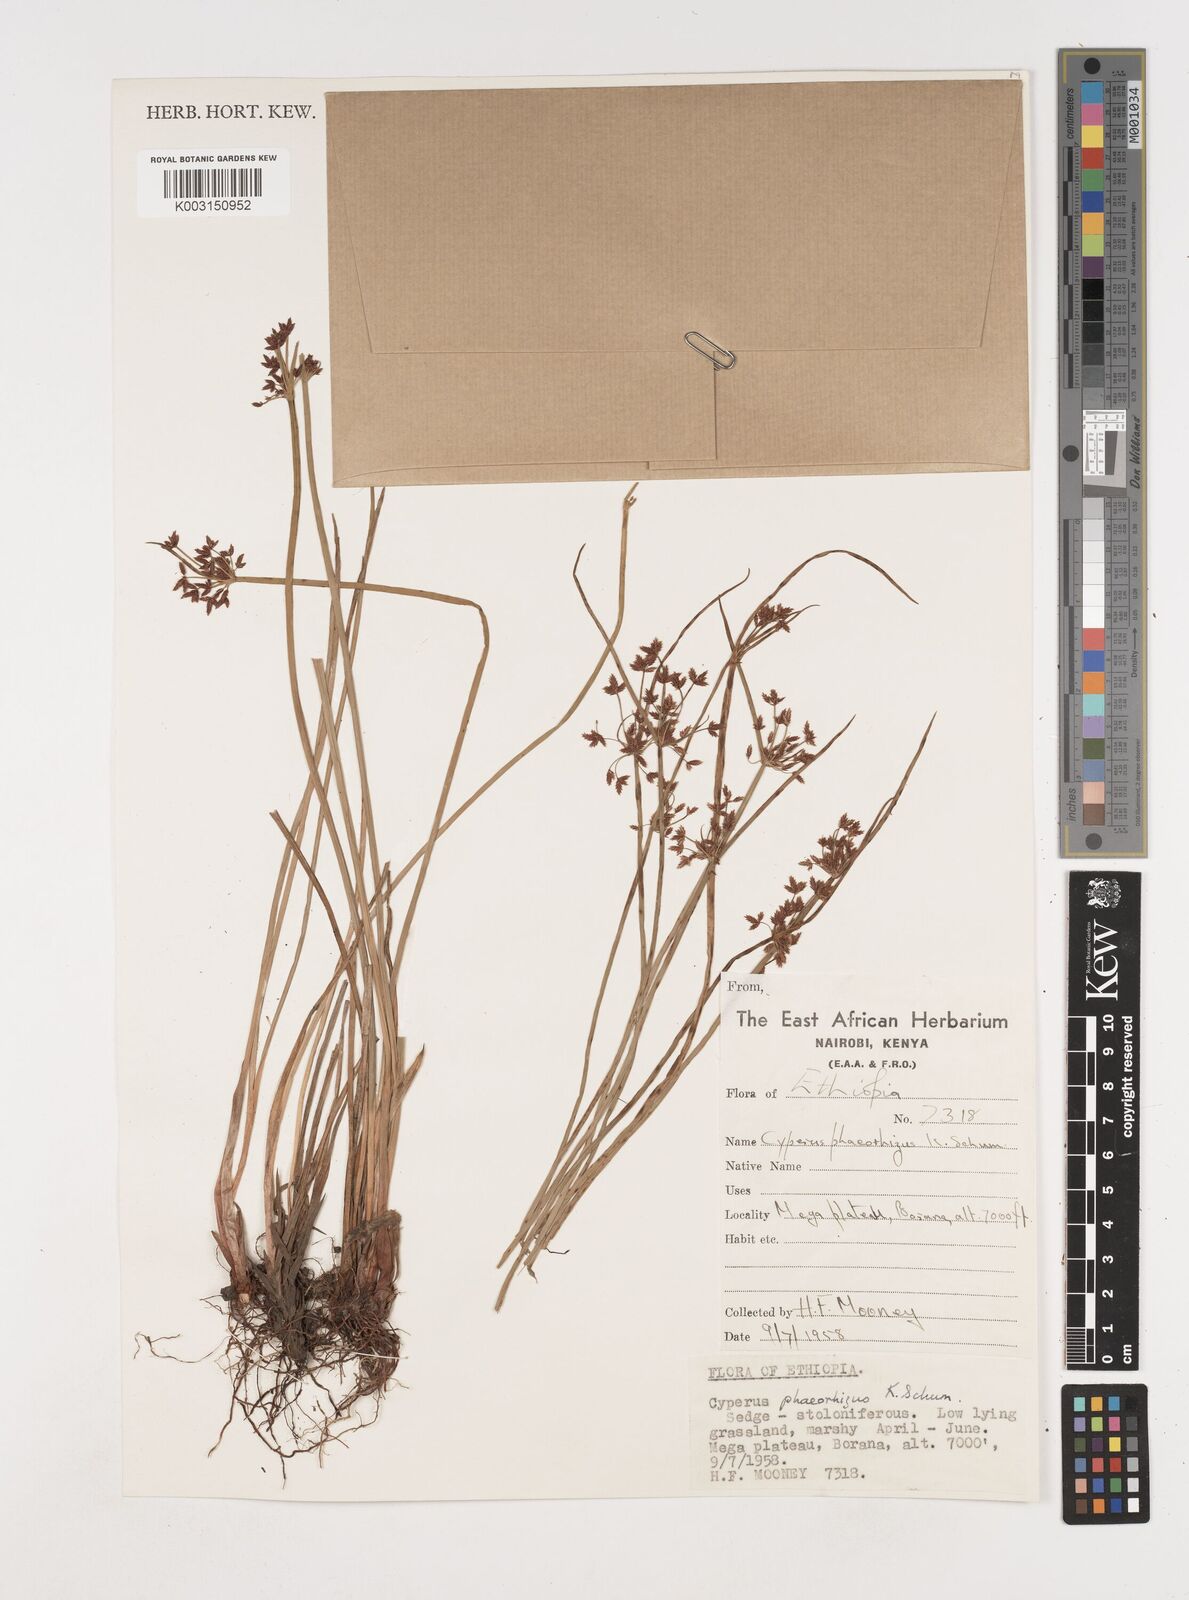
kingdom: Plantae
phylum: Tracheophyta
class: Liliopsida
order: Poales
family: Cyperaceae
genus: Cyperus
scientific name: Cyperus haspan
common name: Haspan flatsedge
